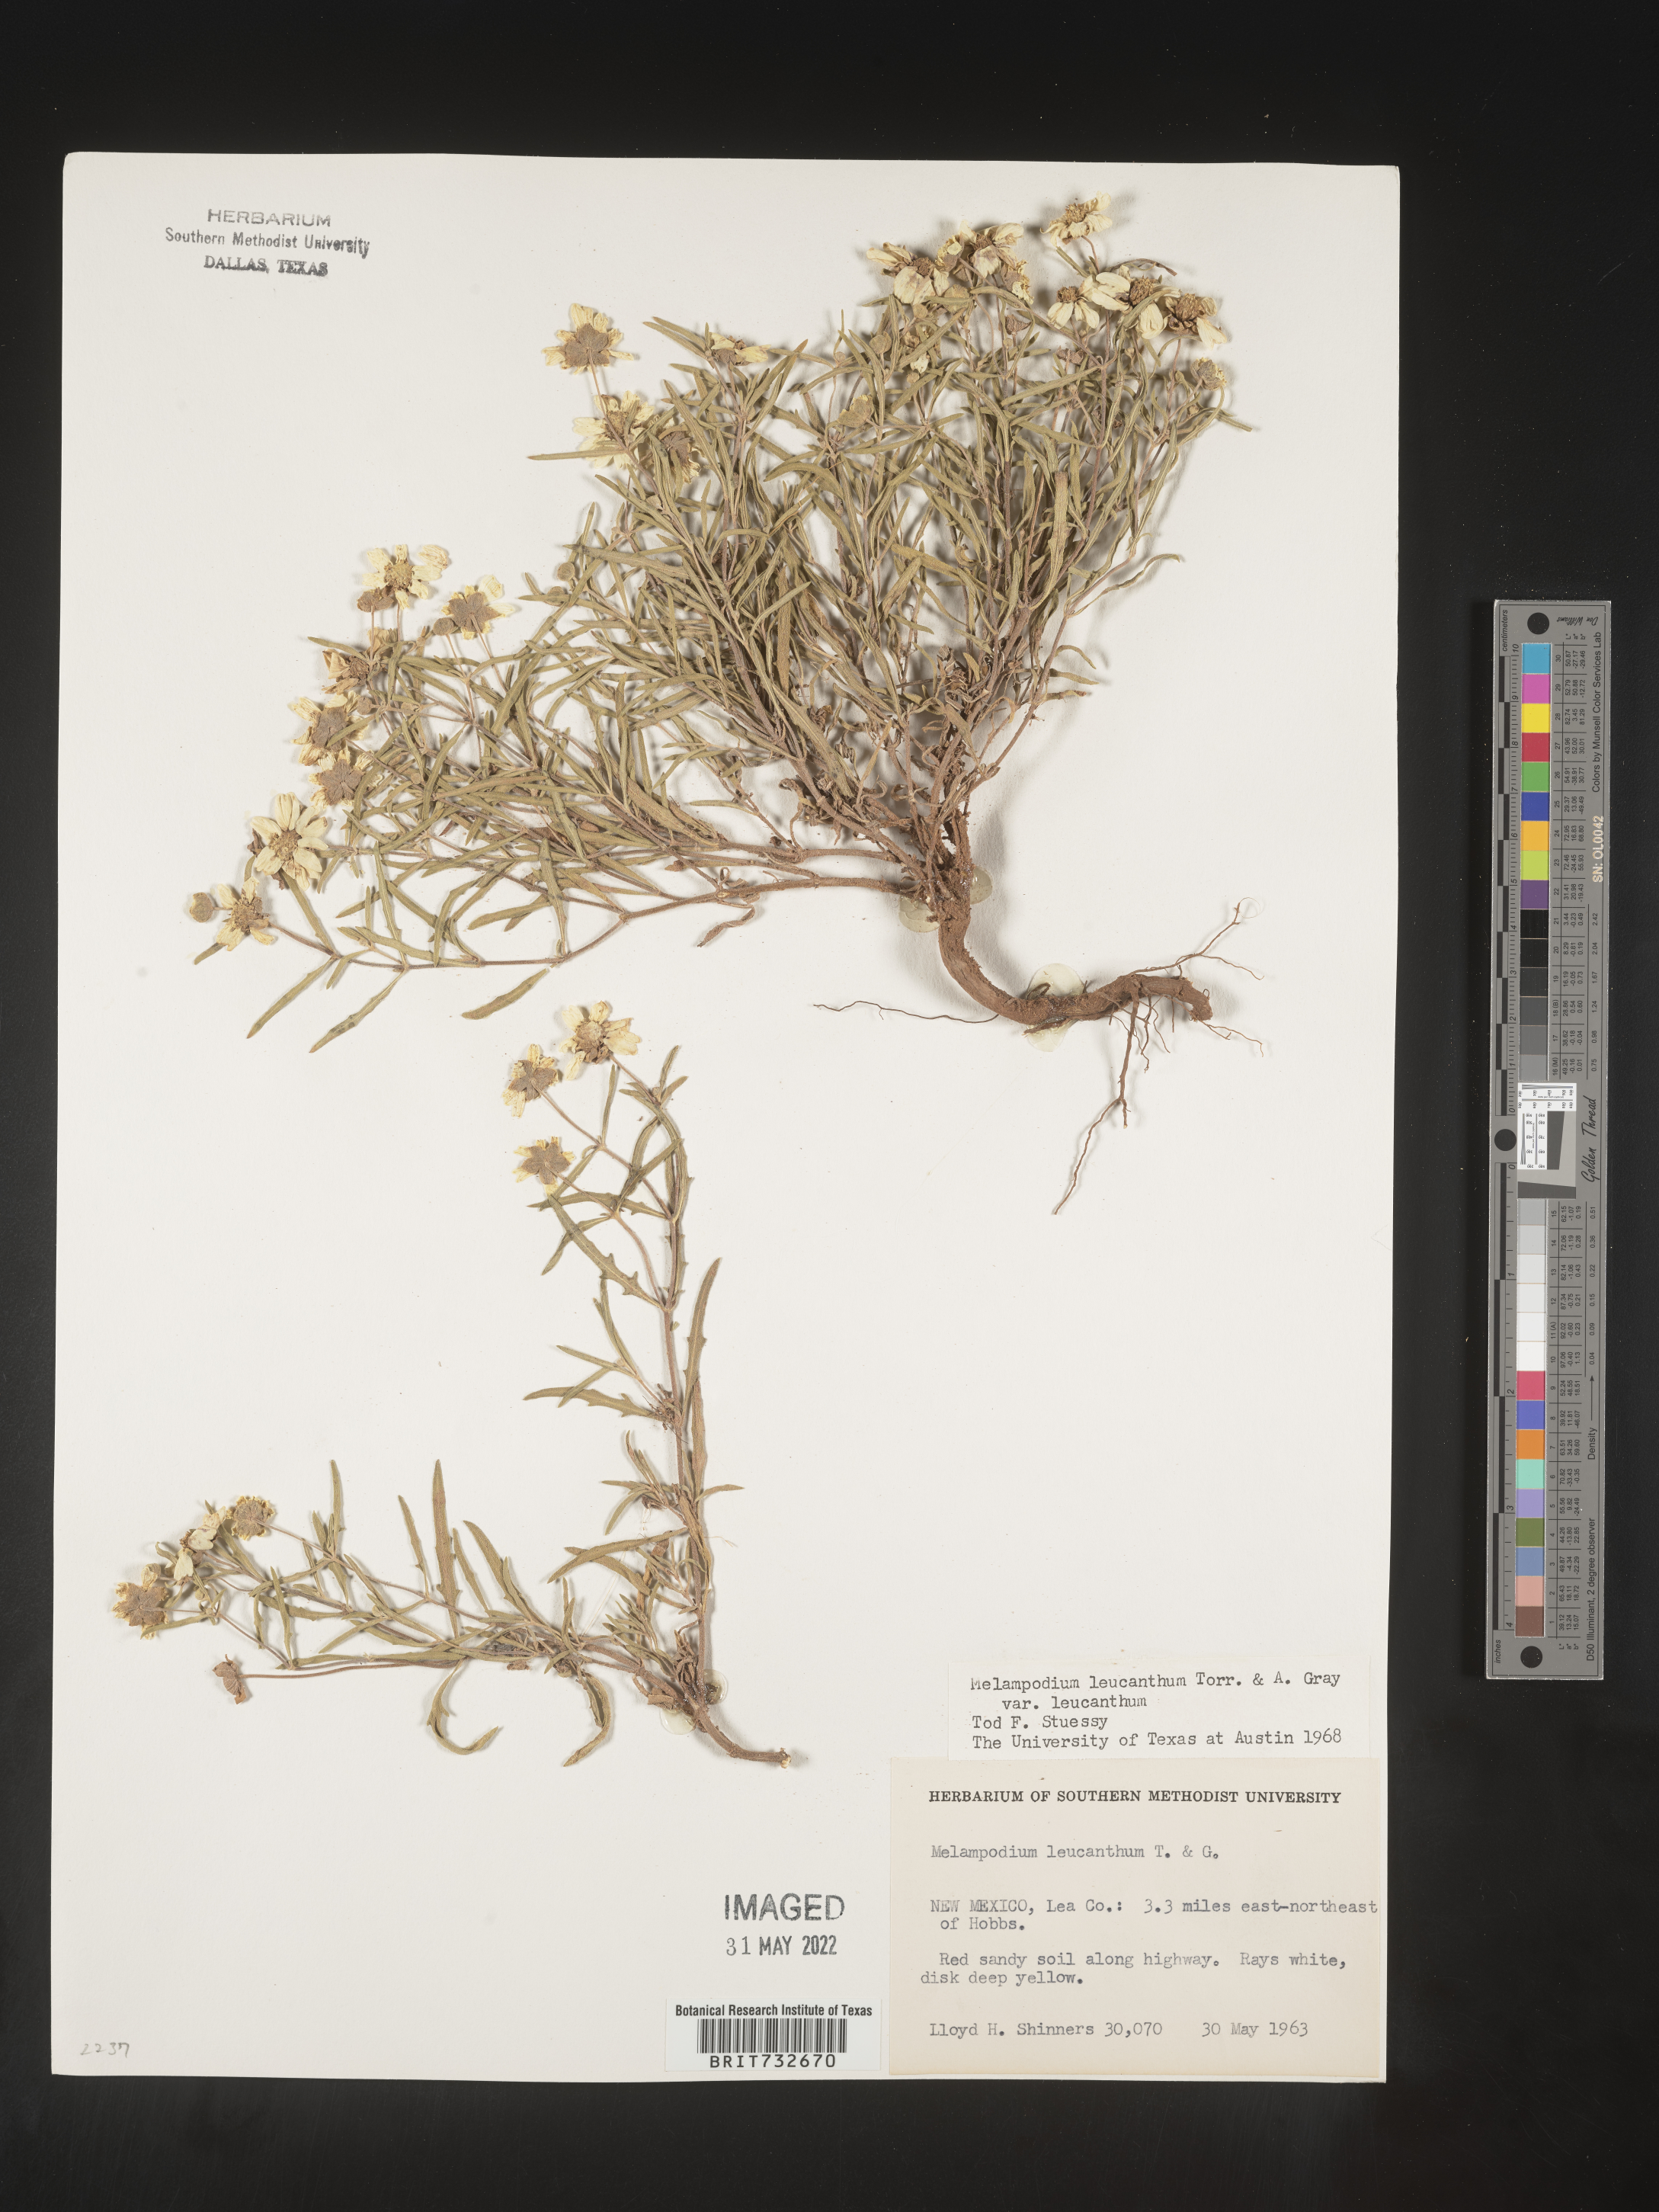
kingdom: Plantae
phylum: Tracheophyta
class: Magnoliopsida
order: Asterales
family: Asteraceae
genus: Melampodium
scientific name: Melampodium leucanthum
